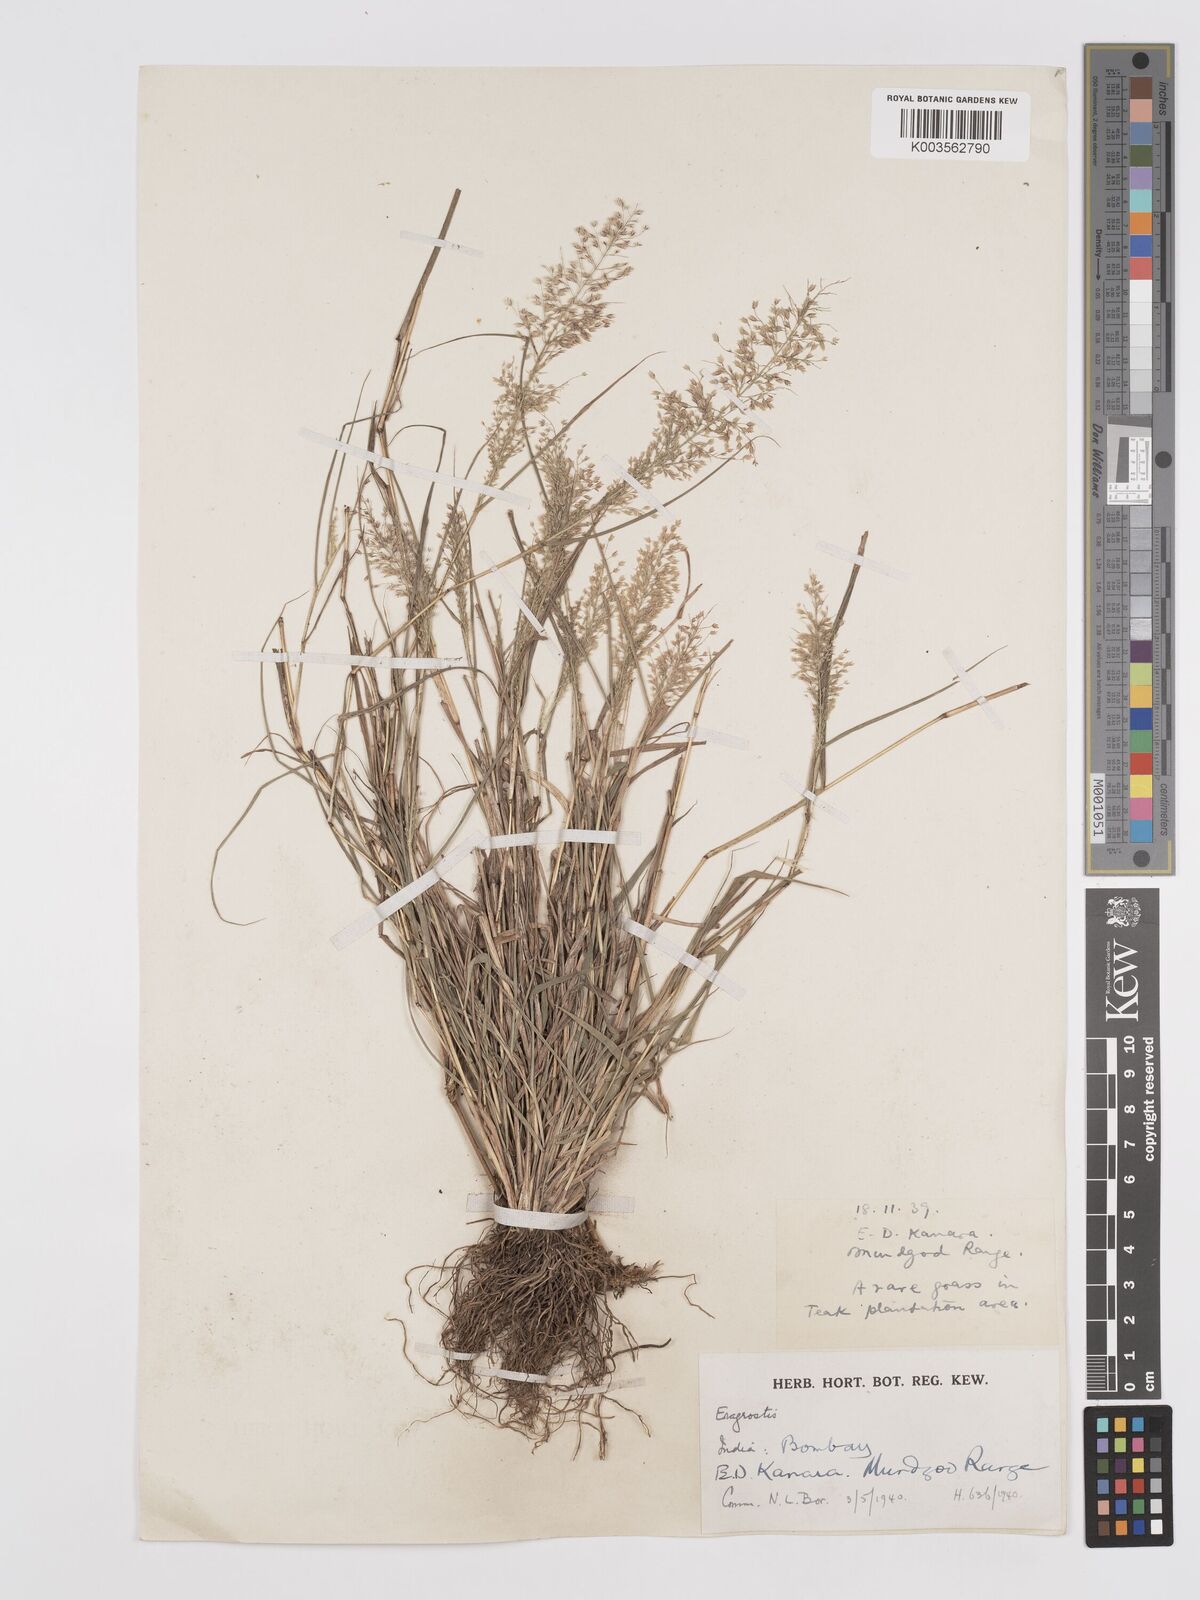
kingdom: Plantae
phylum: Tracheophyta
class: Liliopsida
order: Poales
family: Poaceae
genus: Eragrostis
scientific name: Eragrostis viscosa
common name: Sticky love grass
